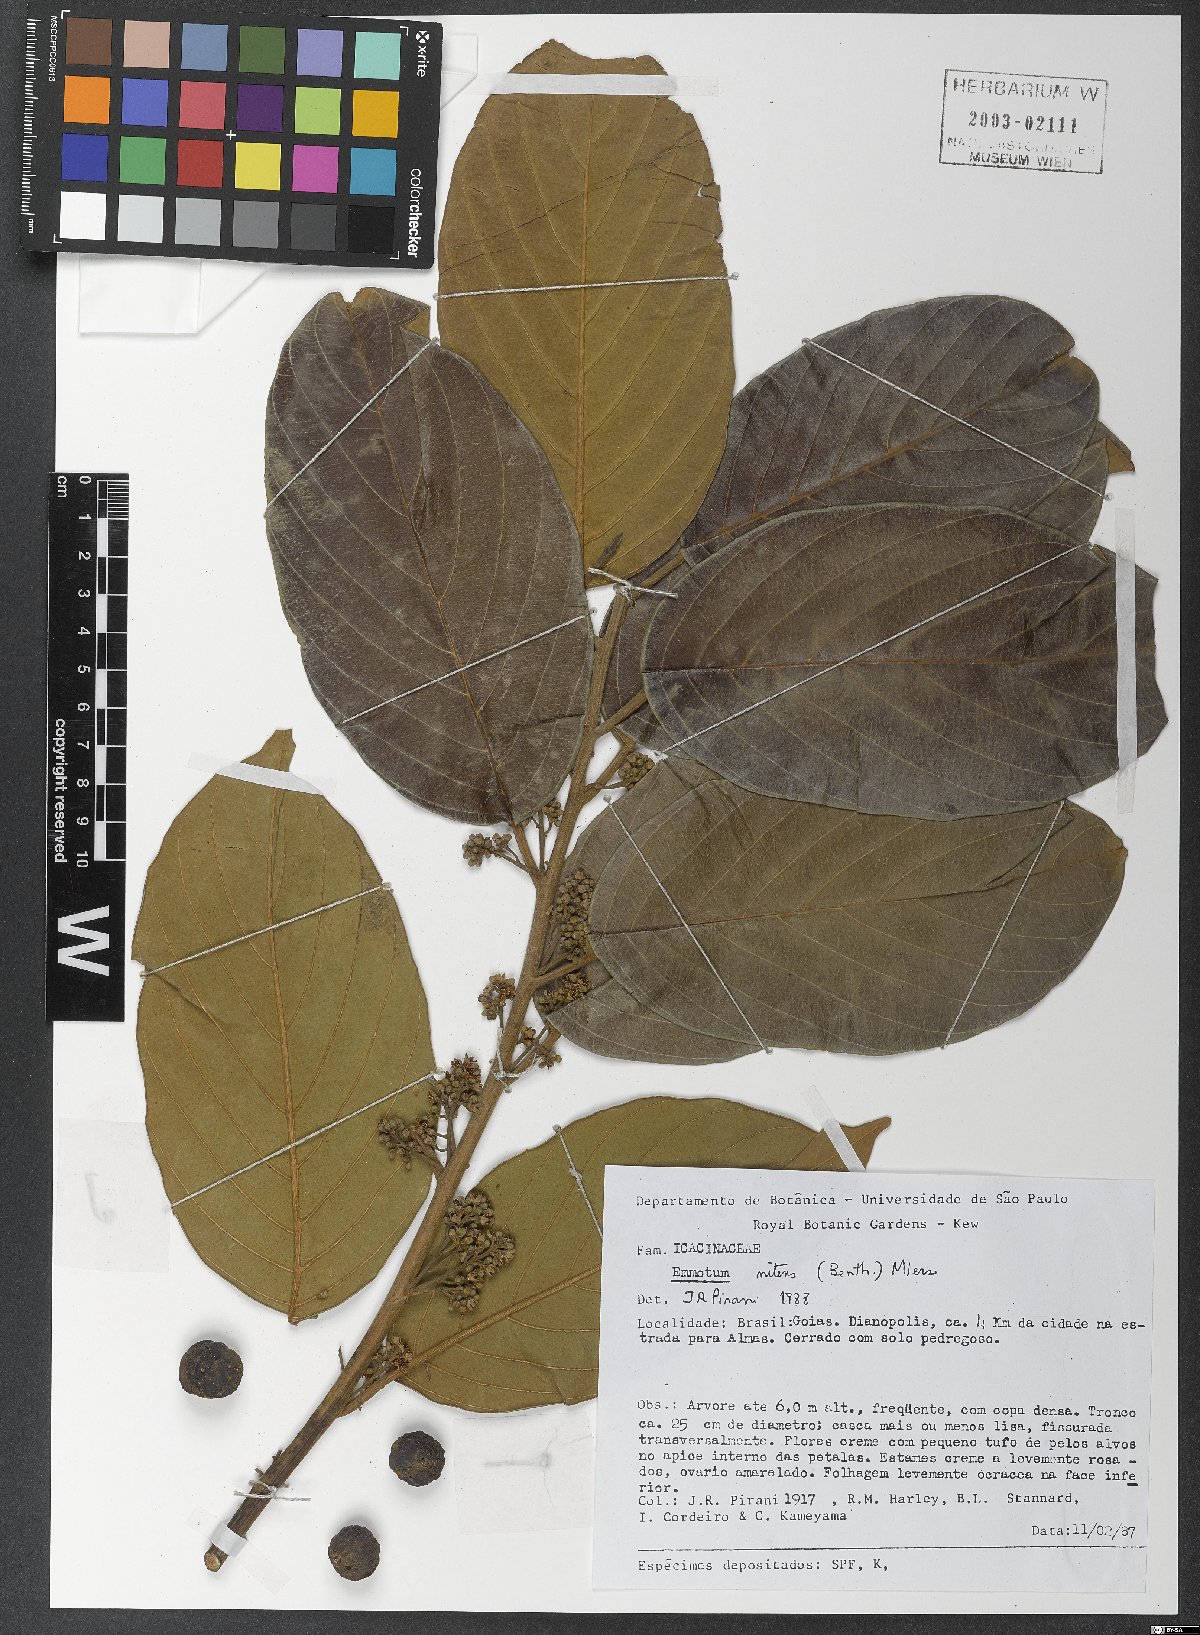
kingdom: Plantae
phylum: Tracheophyta
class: Magnoliopsida
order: Metteniusales
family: Metteniusaceae
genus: Emmotum
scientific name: Emmotum nitens
